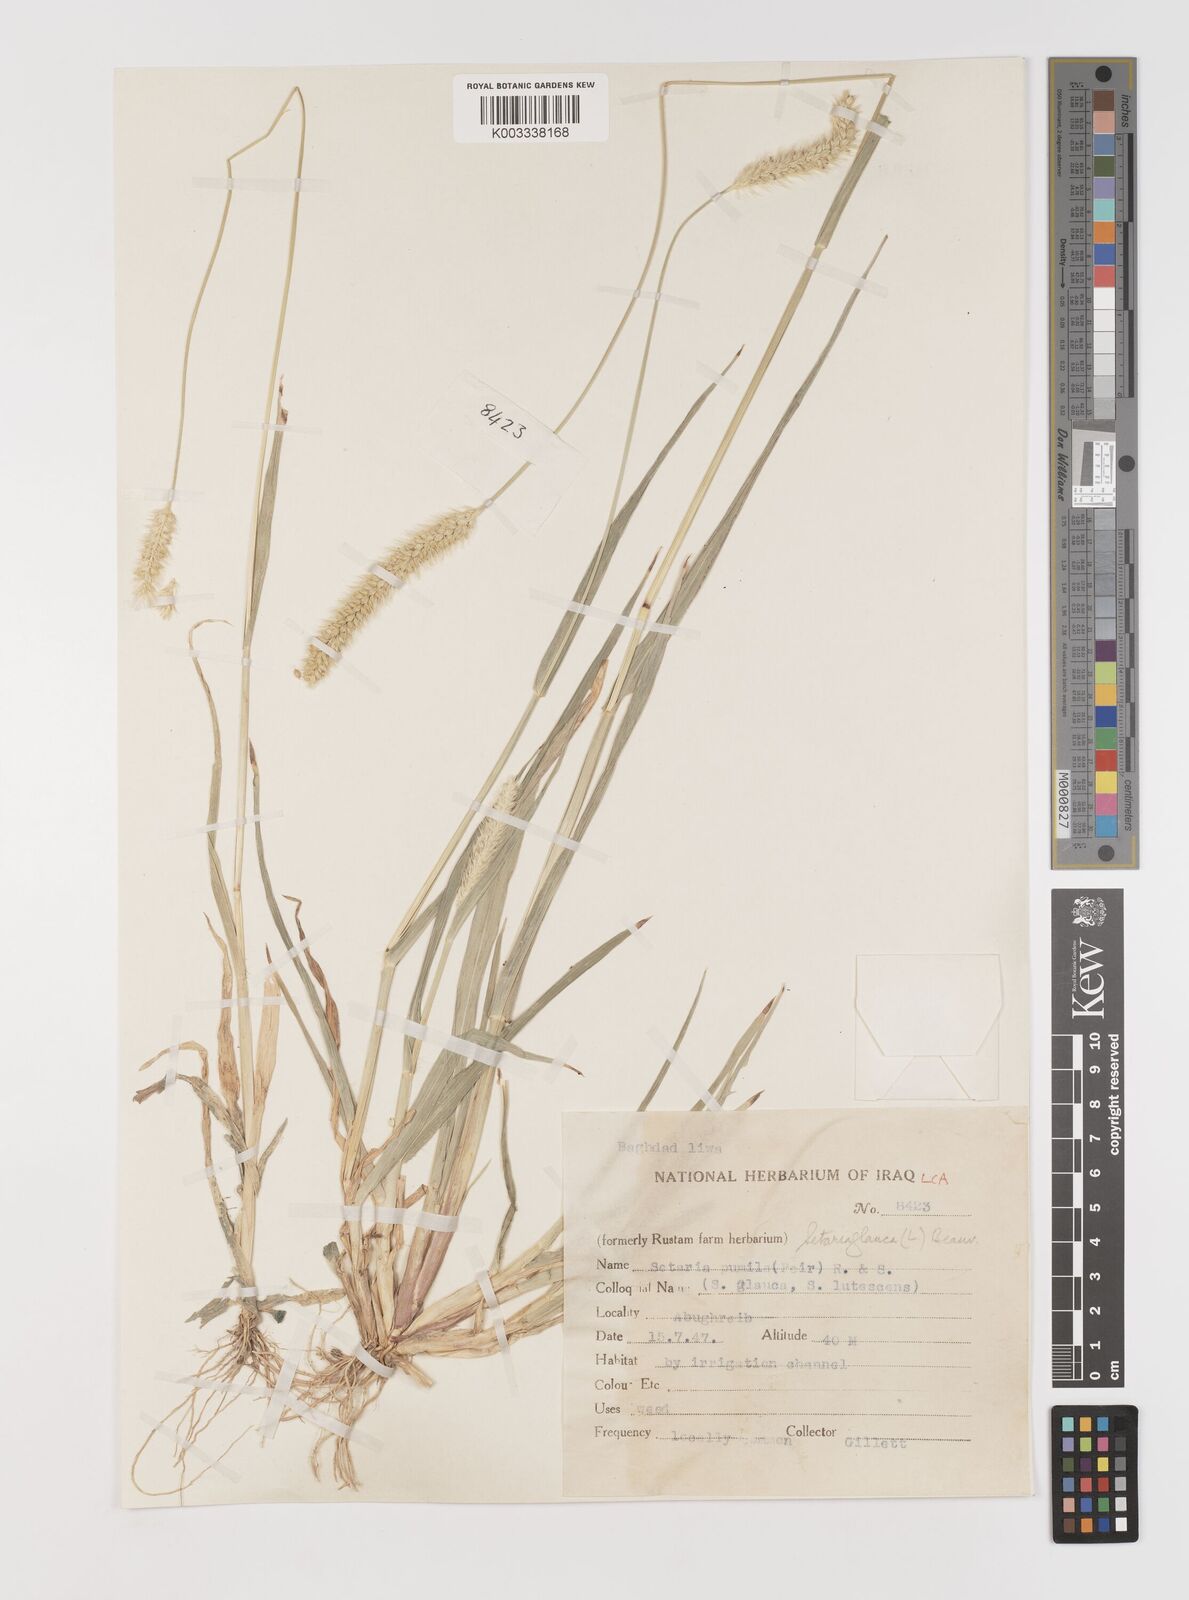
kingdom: Plantae
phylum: Tracheophyta
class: Liliopsida
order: Poales
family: Poaceae
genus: Setaria
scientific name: Setaria pumila
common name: Yellow bristle-grass
